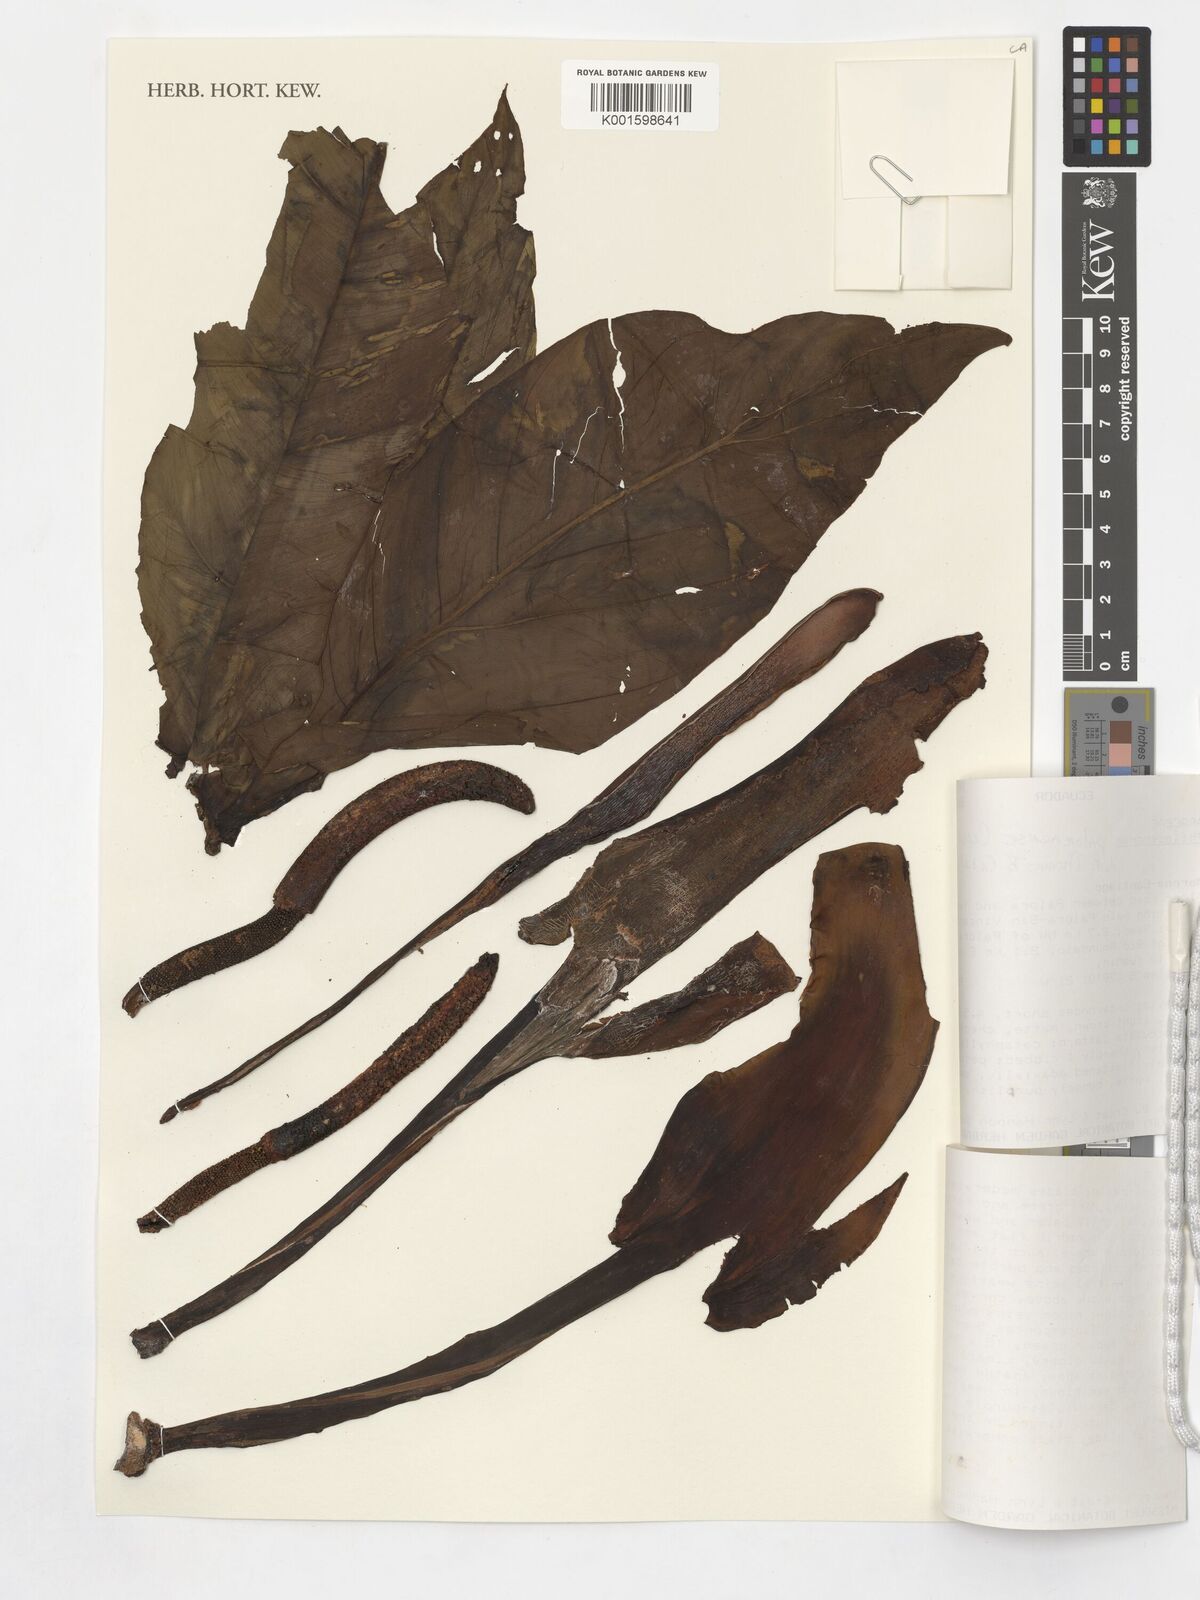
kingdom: Plantae
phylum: Tracheophyta
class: Liliopsida
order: Alismatales
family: Araceae
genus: Philodendron
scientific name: Philodendron
